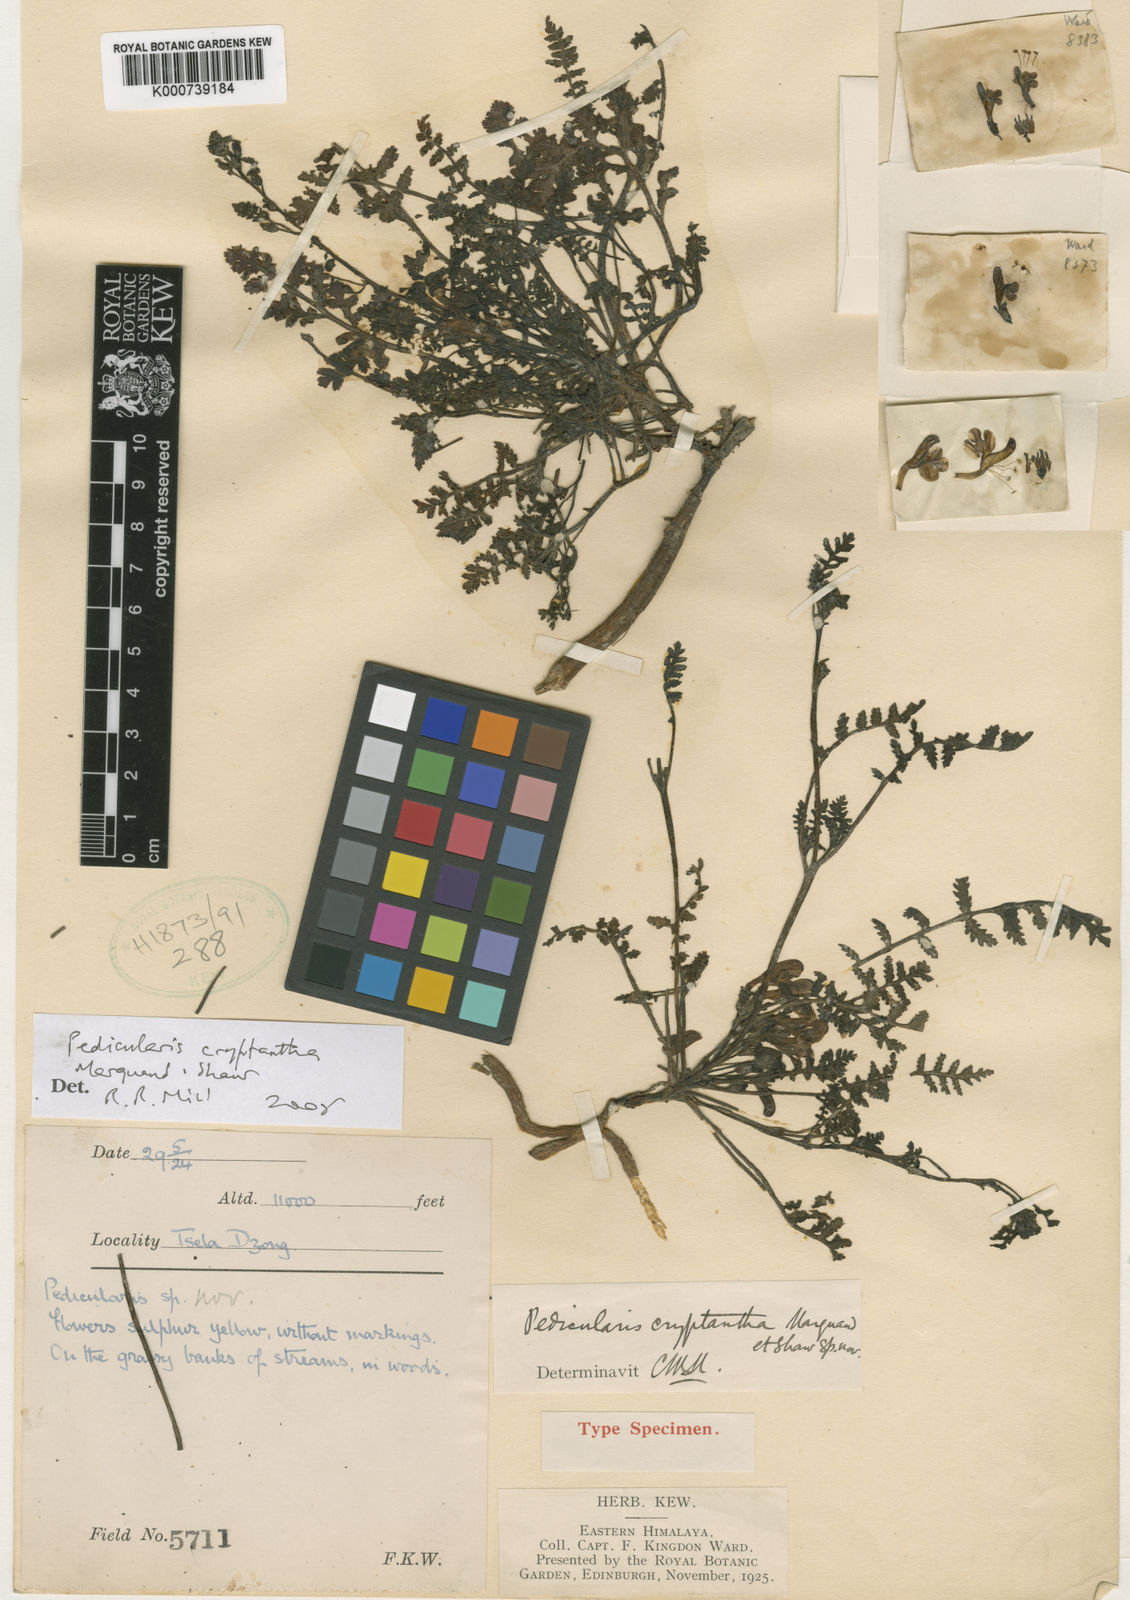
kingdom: Plantae
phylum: Tracheophyta
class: Magnoliopsida
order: Lamiales
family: Orobanchaceae
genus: Pedicularis
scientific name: Pedicularis cryptantha
